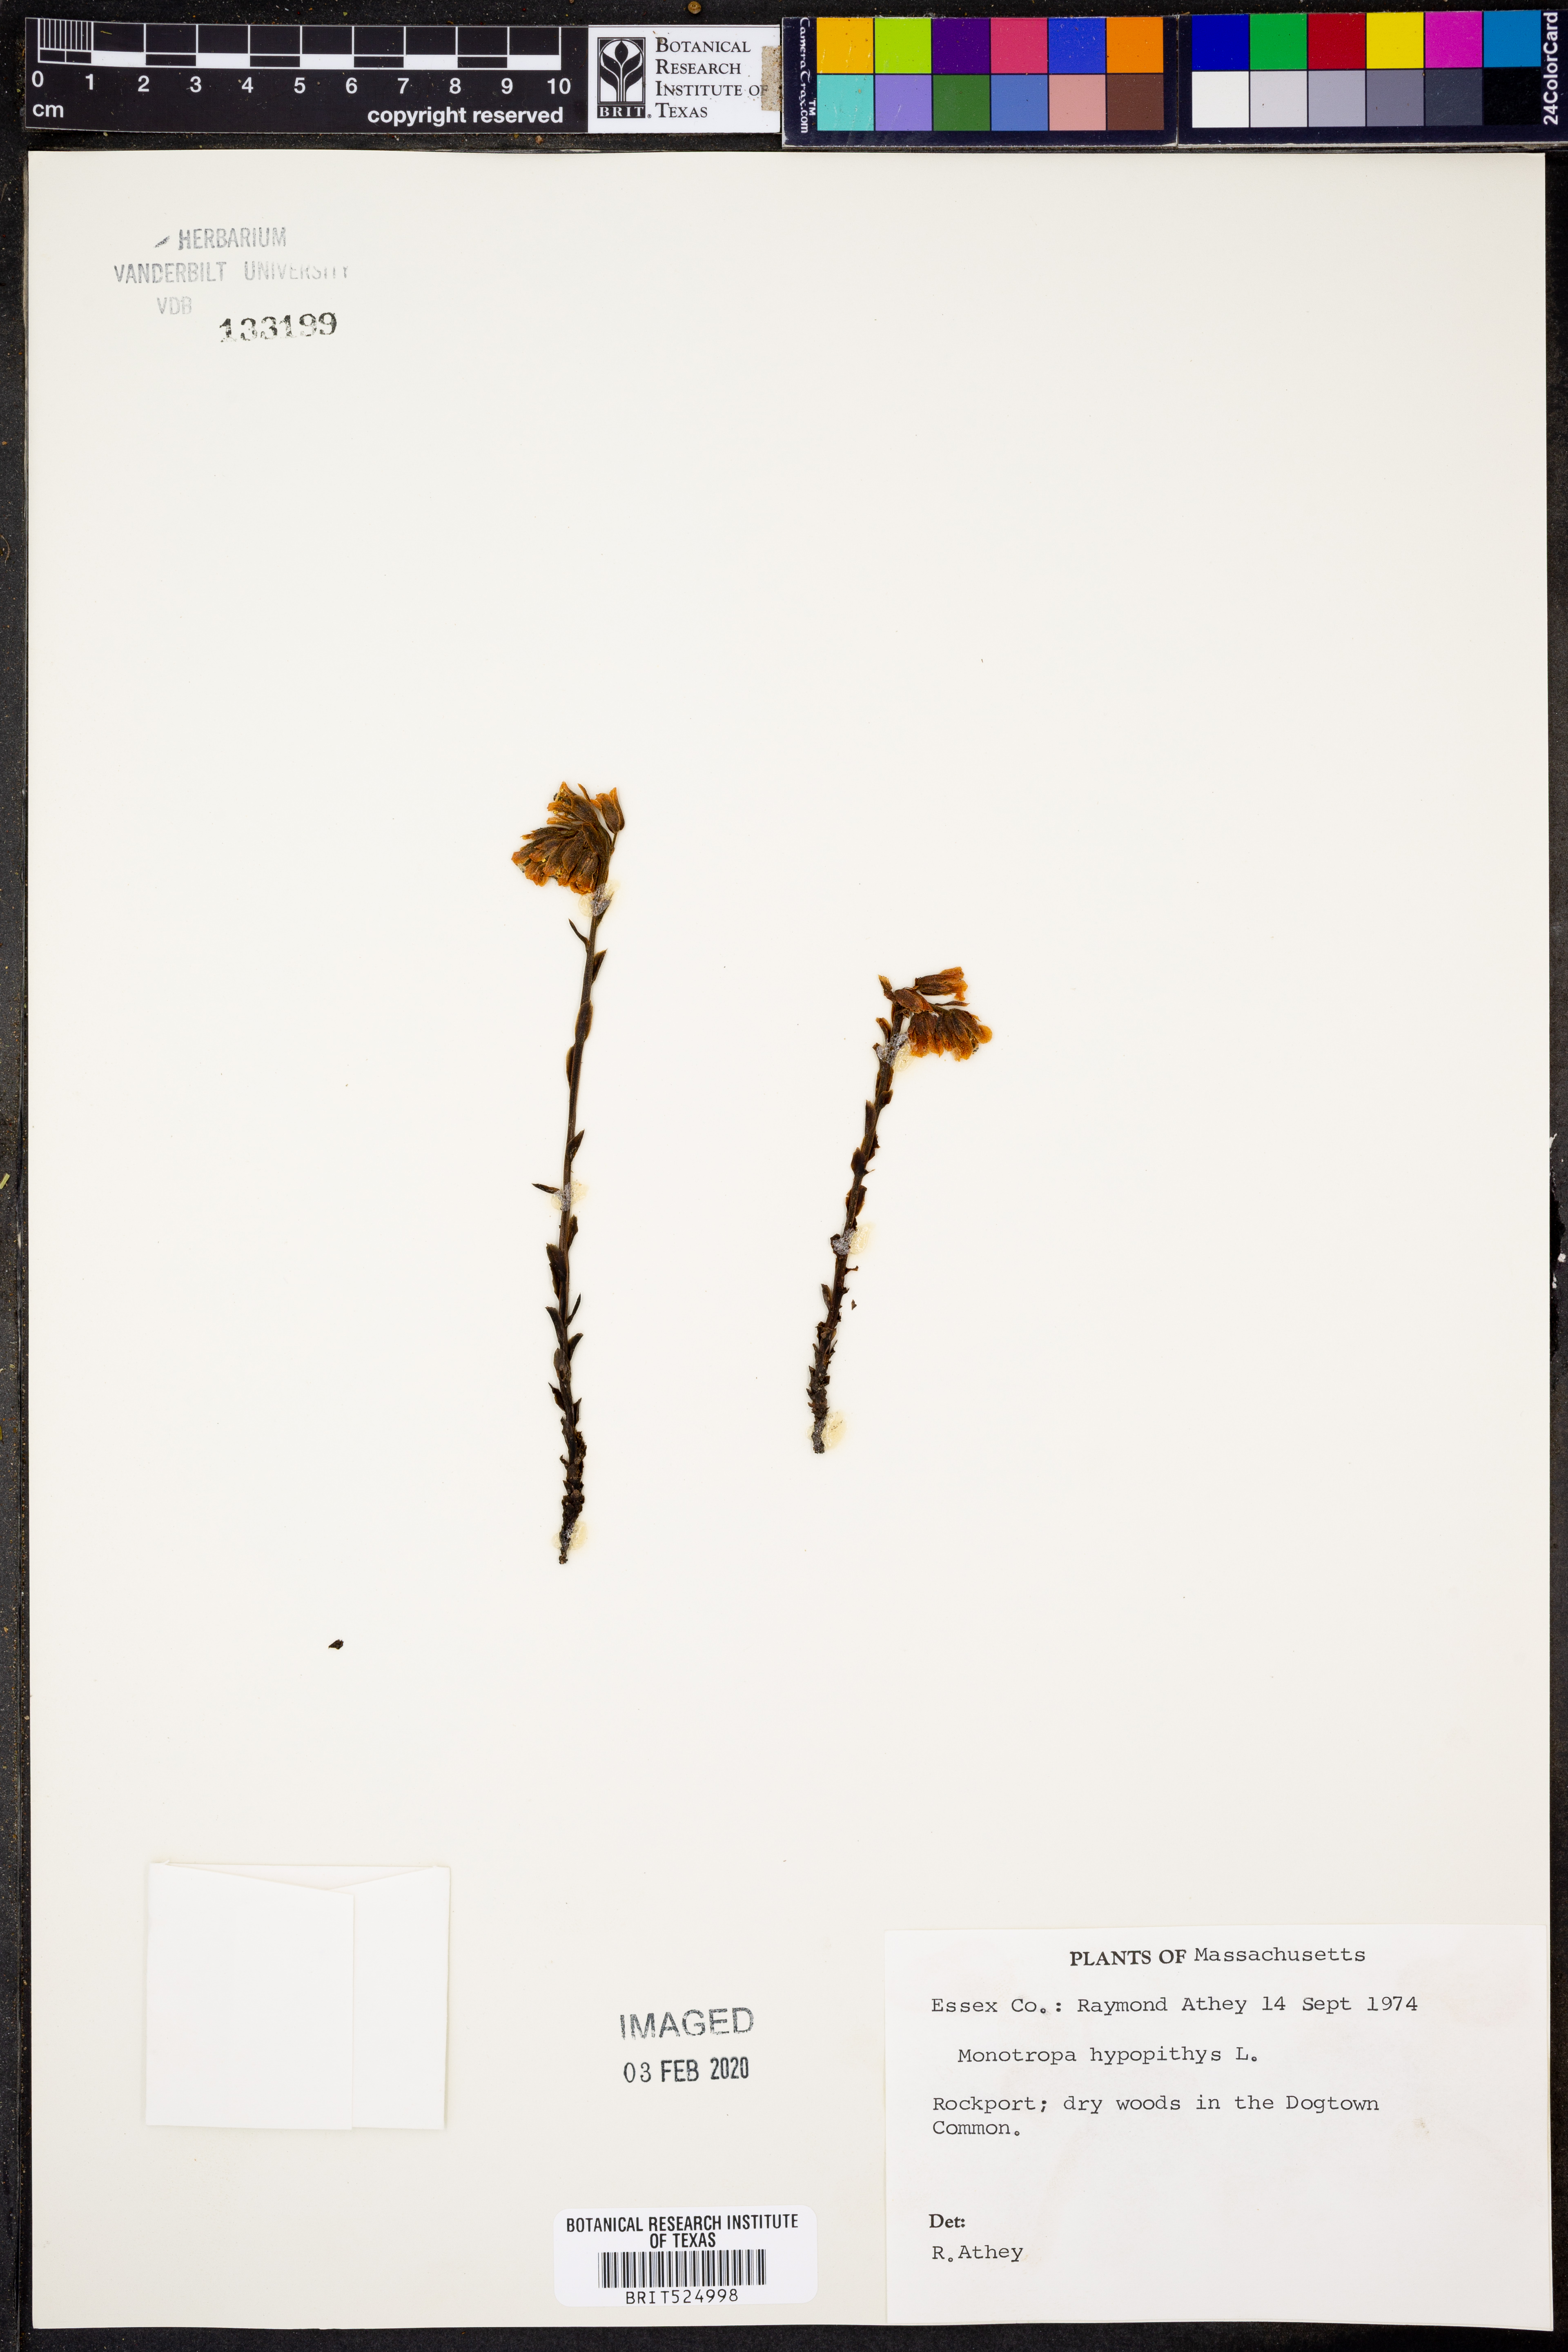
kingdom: Plantae
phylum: Tracheophyta
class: Magnoliopsida
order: Ericales
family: Ericaceae
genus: Hypopitys
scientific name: Hypopitys monotropa
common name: Yellow bird's-nest
